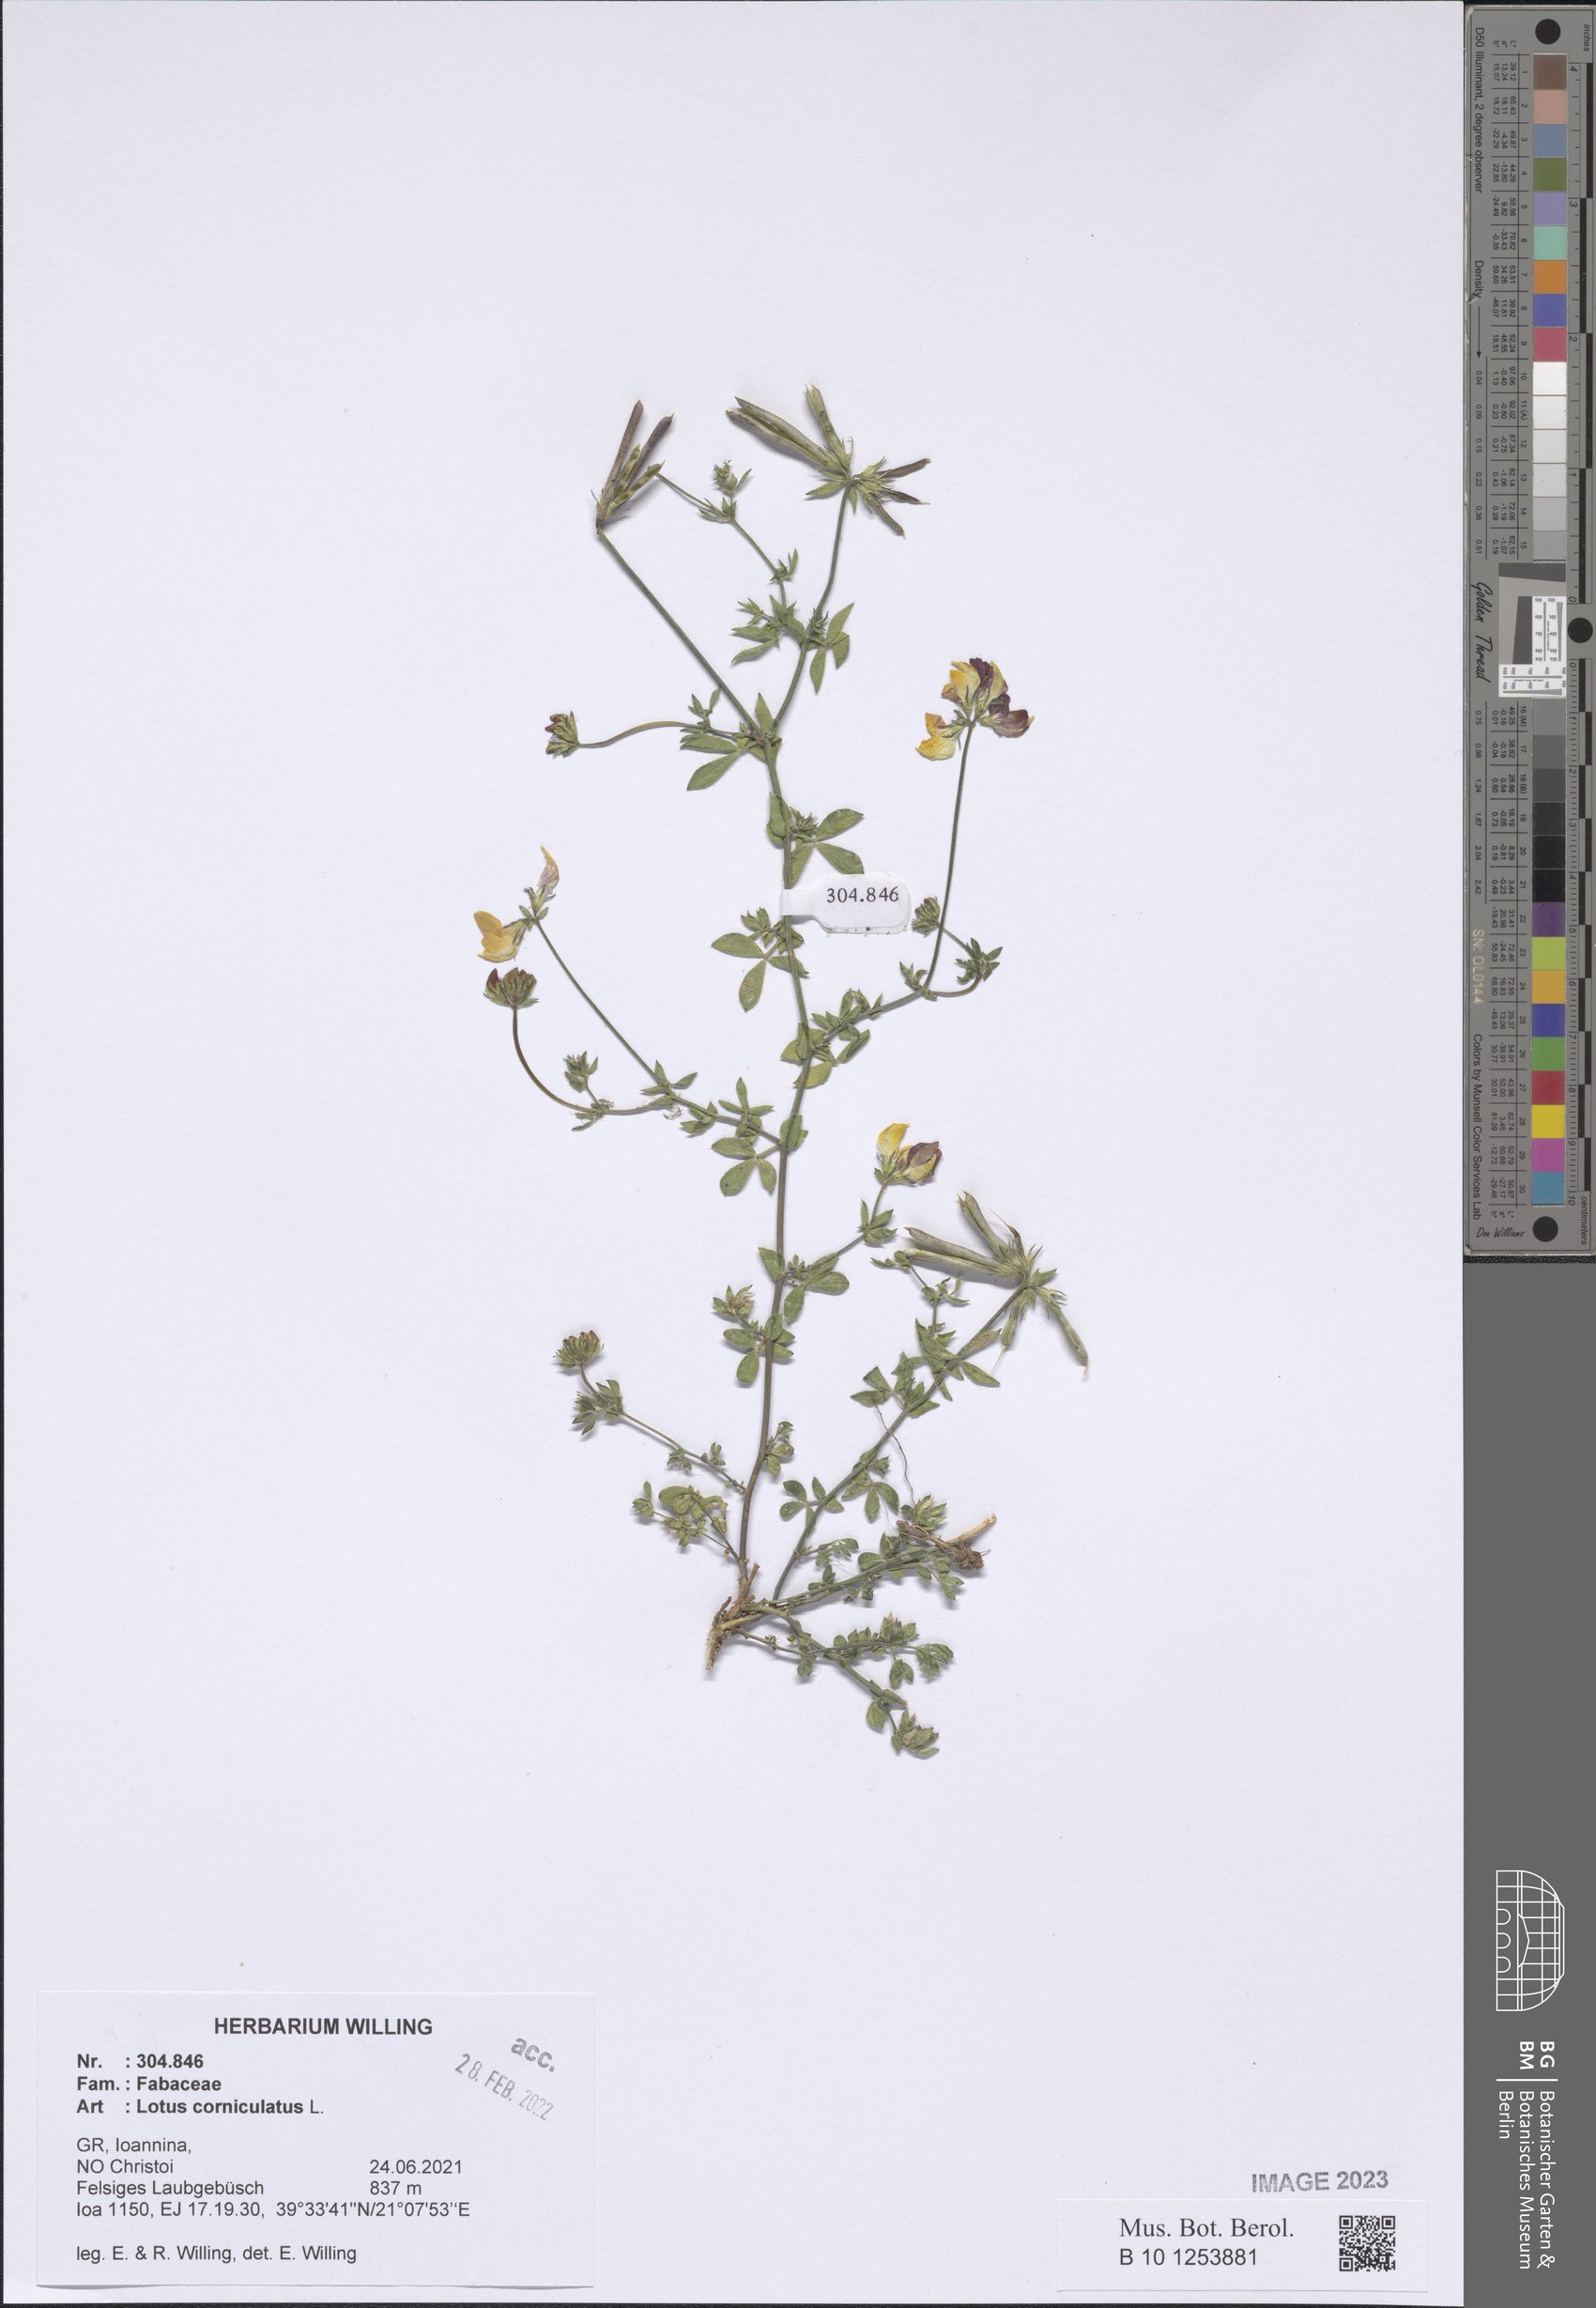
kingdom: Plantae
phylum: Tracheophyta
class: Magnoliopsida
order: Fabales
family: Fabaceae
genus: Lotus
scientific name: Lotus corniculatus
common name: Common bird's-foot-trefoil
